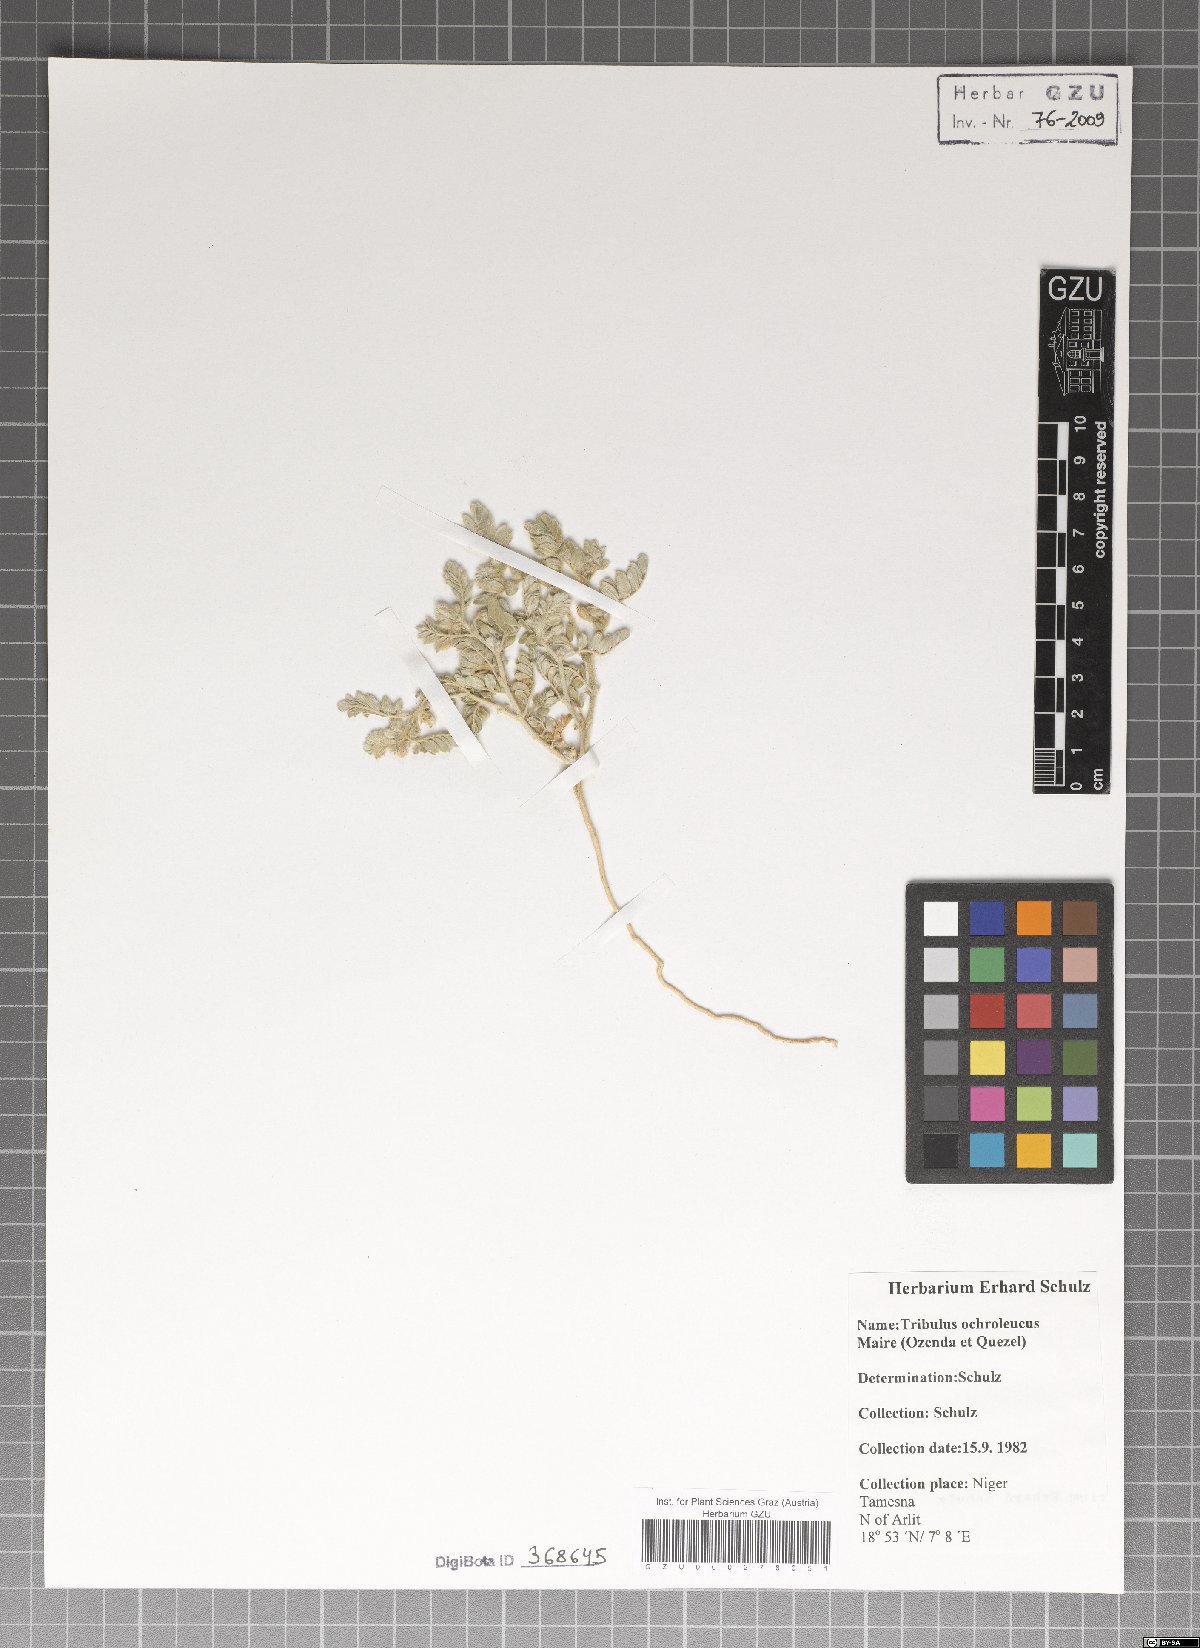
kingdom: Plantae
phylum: Tracheophyta
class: Magnoliopsida
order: Zygophyllales
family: Zygophyllaceae
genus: Tribulus
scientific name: Tribulus ochroleucus
